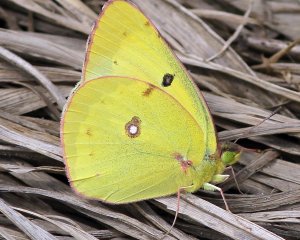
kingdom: Animalia
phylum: Arthropoda
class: Insecta
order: Lepidoptera
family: Pieridae
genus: Colias
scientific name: Colias philodice
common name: Clouded Sulphur
